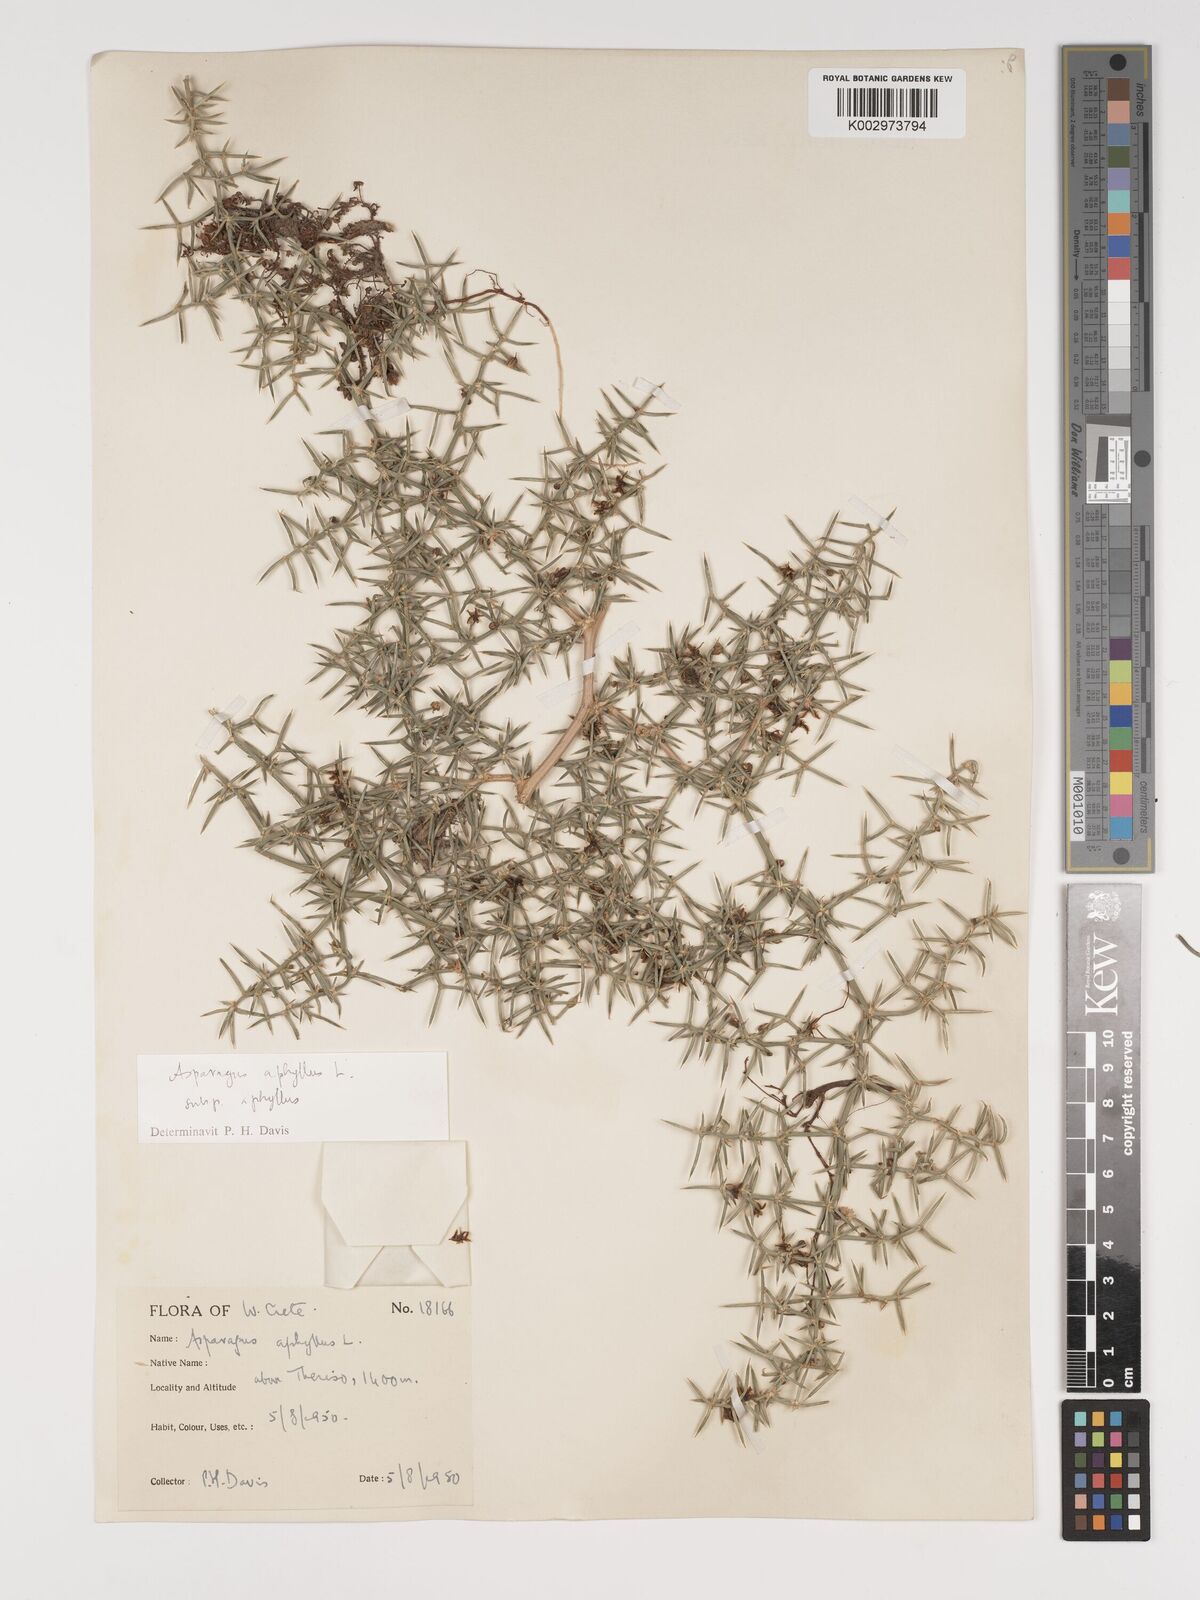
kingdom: Plantae
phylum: Tracheophyta
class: Liliopsida
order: Asparagales
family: Asparagaceae
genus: Asparagus
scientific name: Asparagus aphyllus
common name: Mediterranean asparagus
